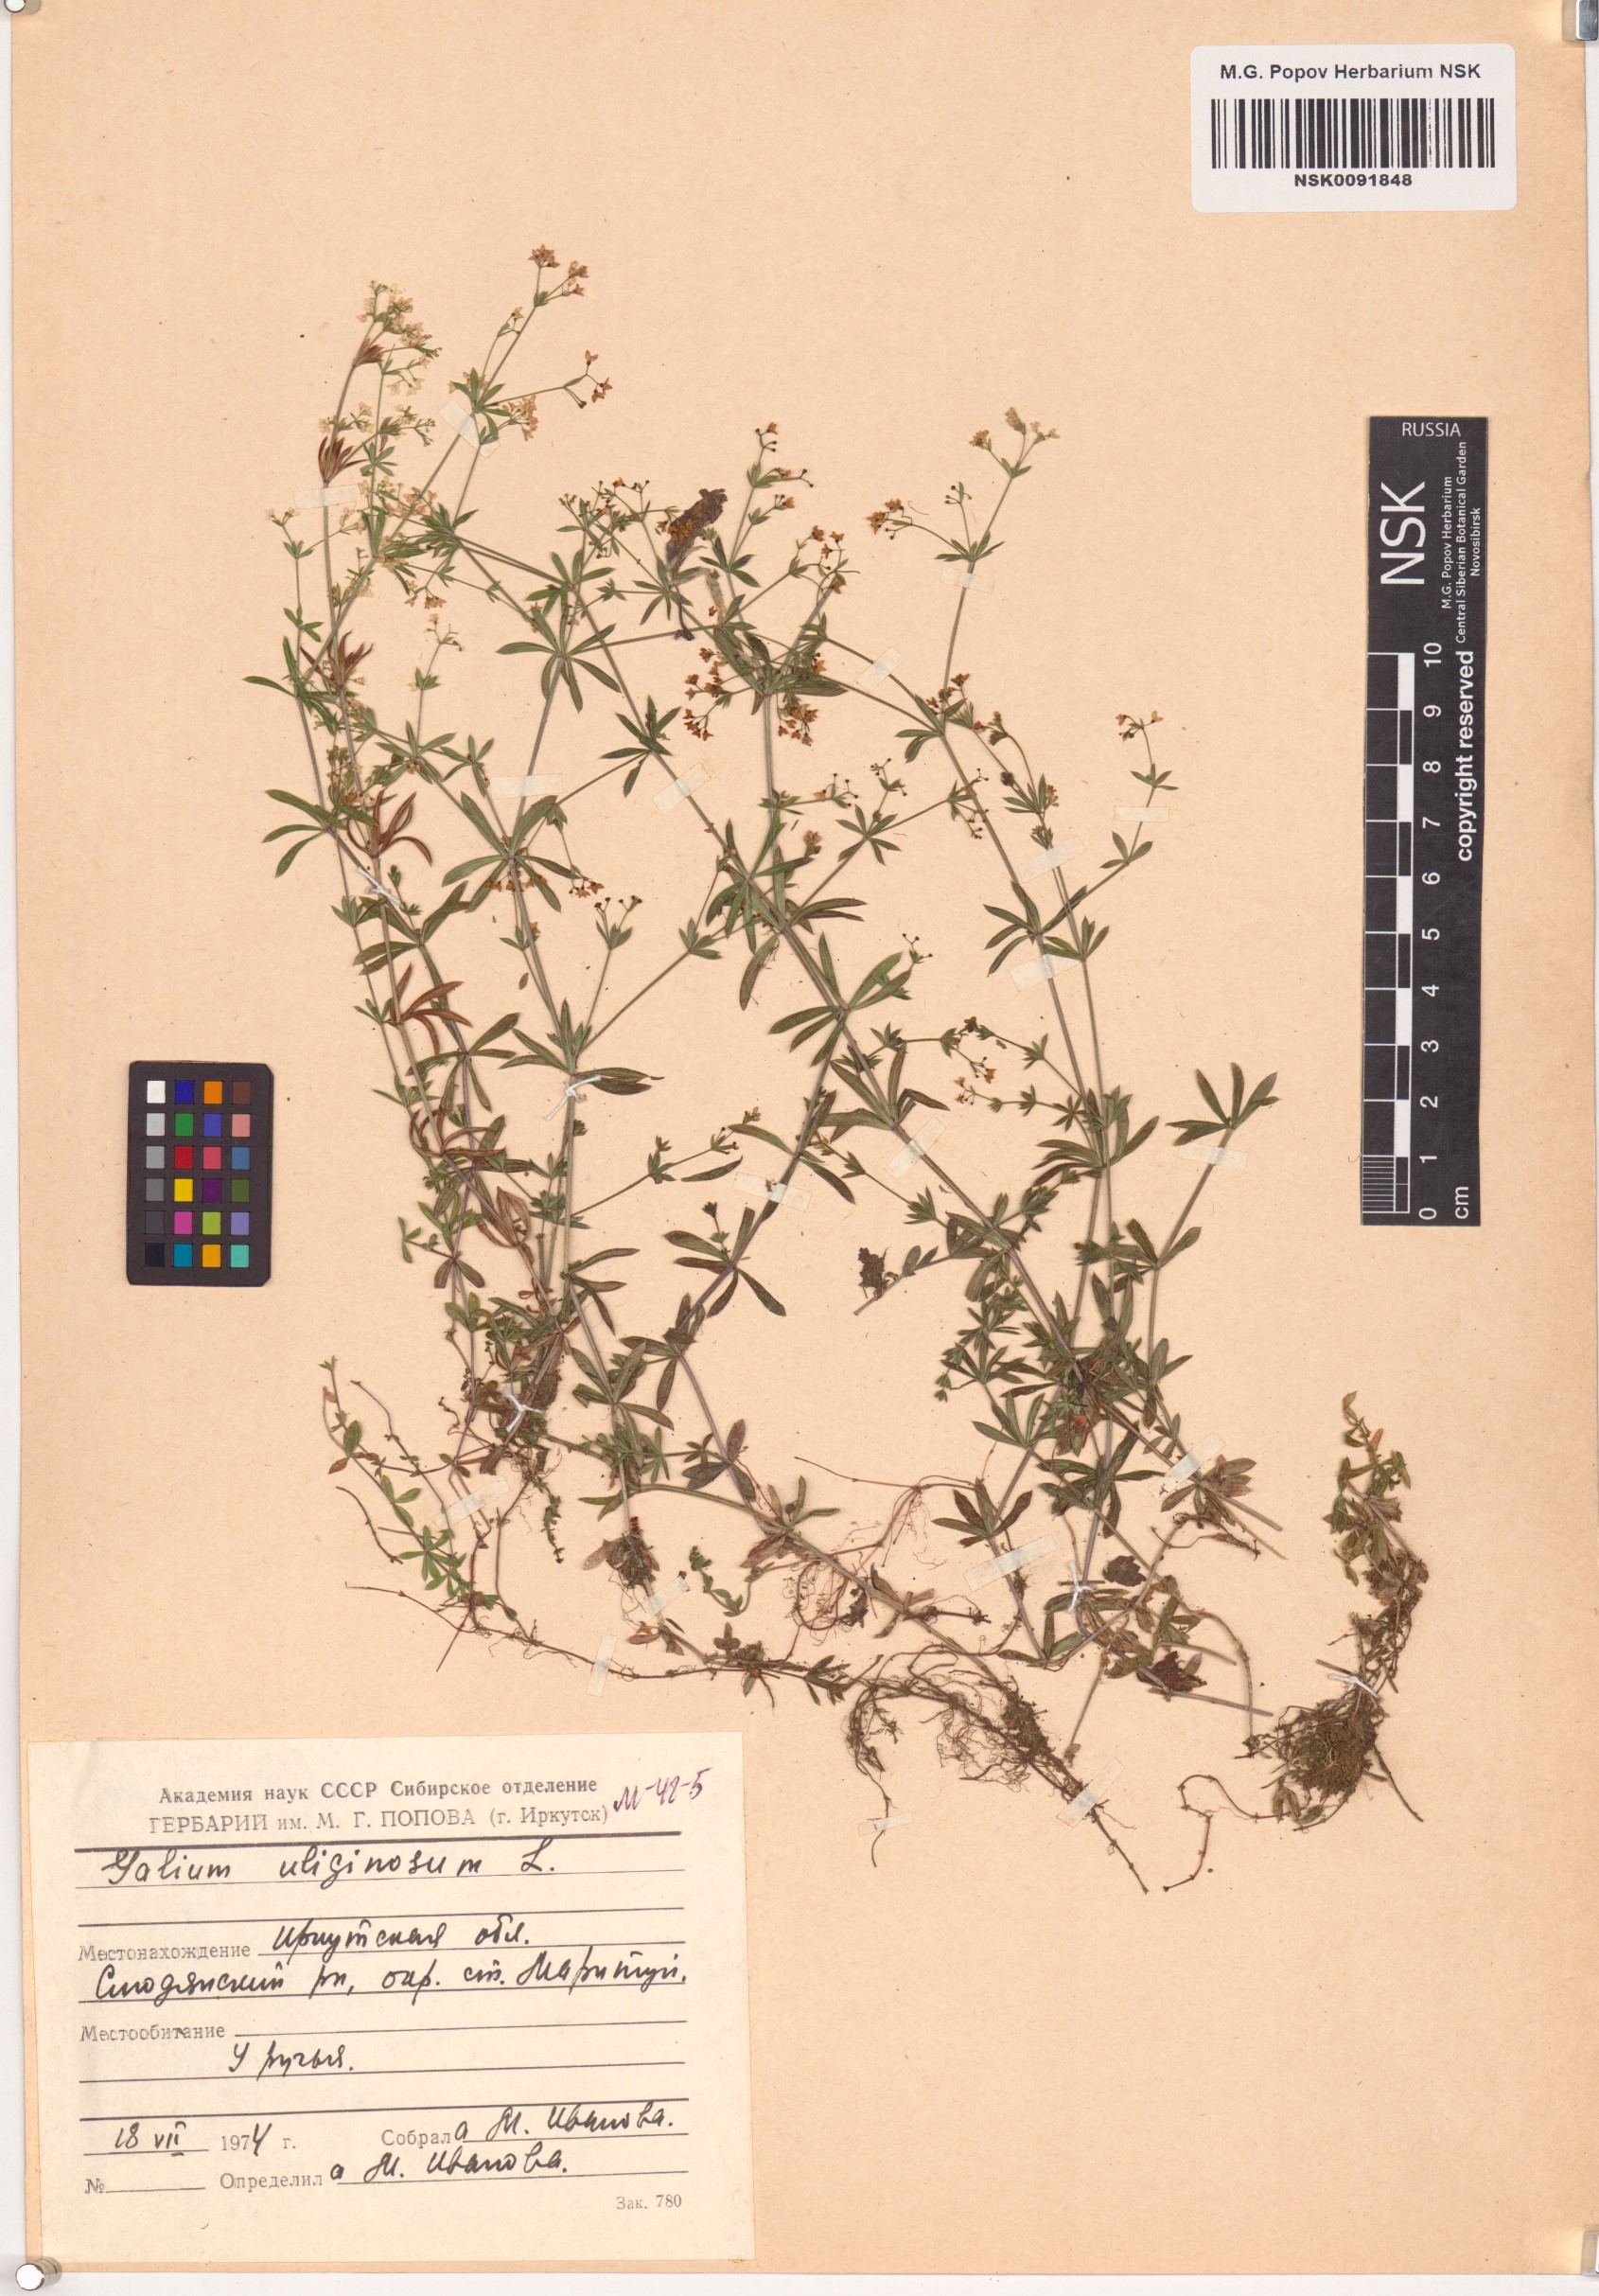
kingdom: Plantae
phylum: Tracheophyta
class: Magnoliopsida
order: Gentianales
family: Rubiaceae
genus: Galium
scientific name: Galium uliginosum
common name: Fen bedstraw
